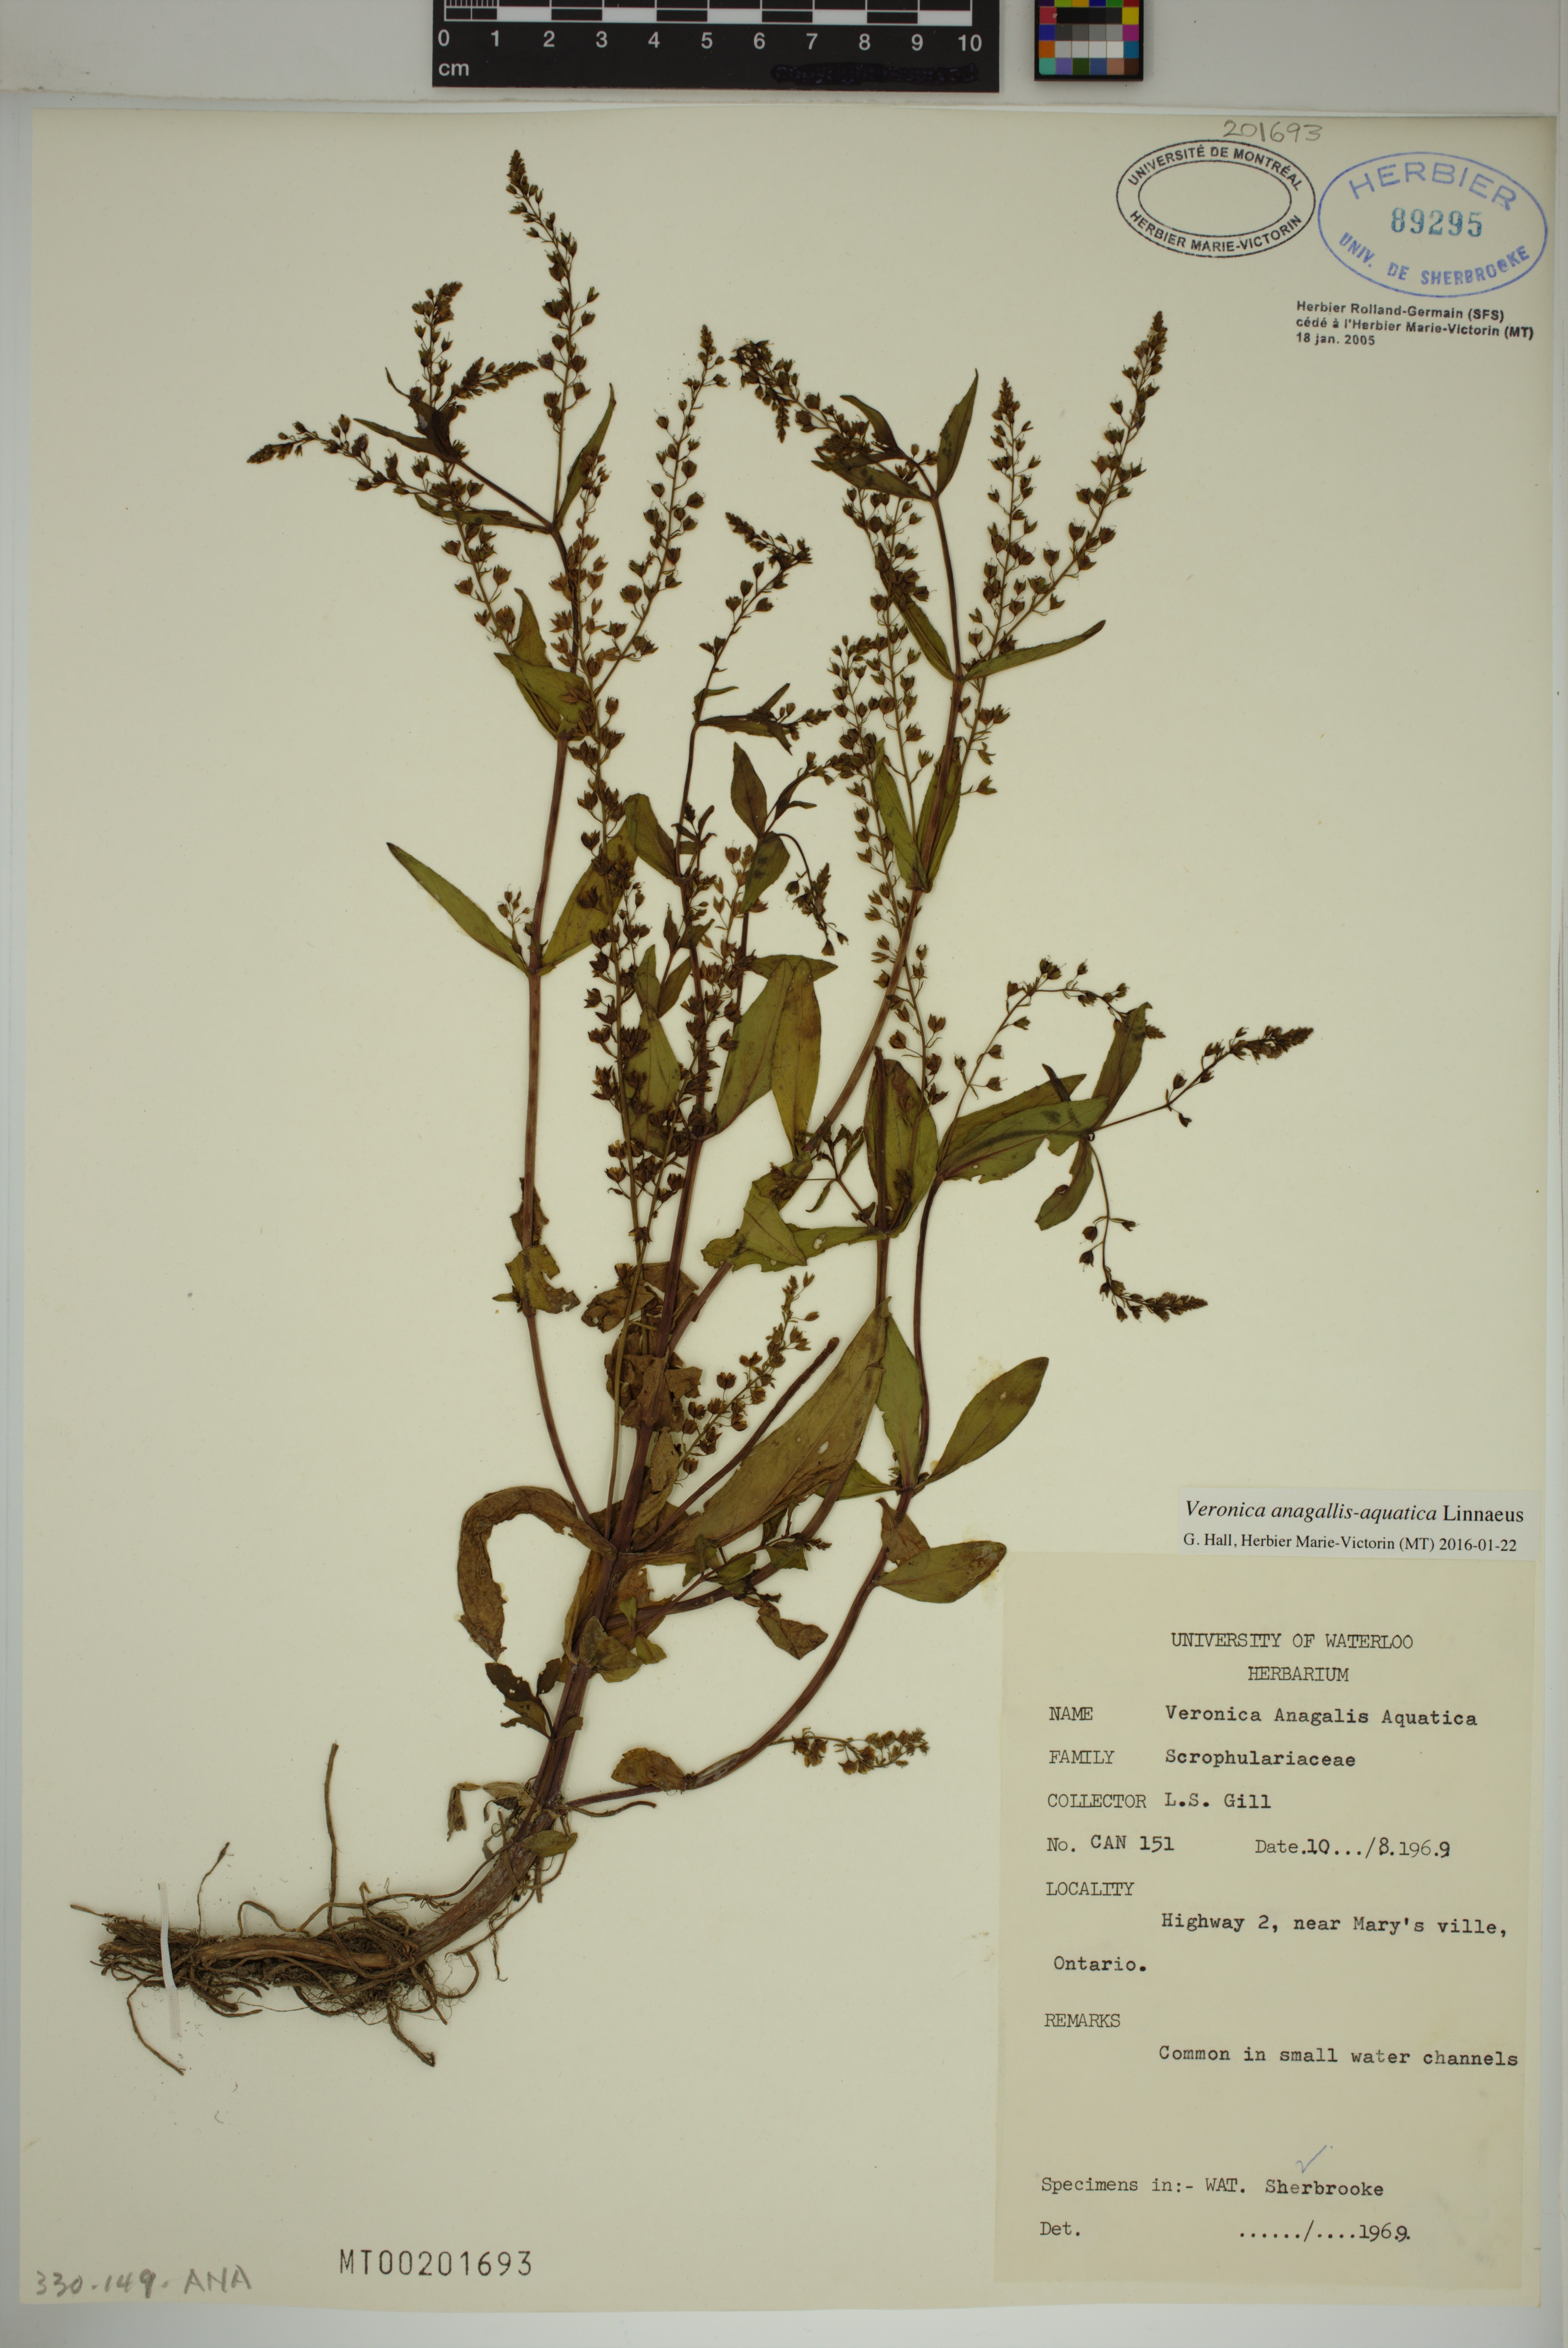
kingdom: Plantae
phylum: Tracheophyta
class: Magnoliopsida
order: Lamiales
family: Plantaginaceae
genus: Veronica
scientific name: Veronica anagallis-aquatica
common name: Water speedwell
